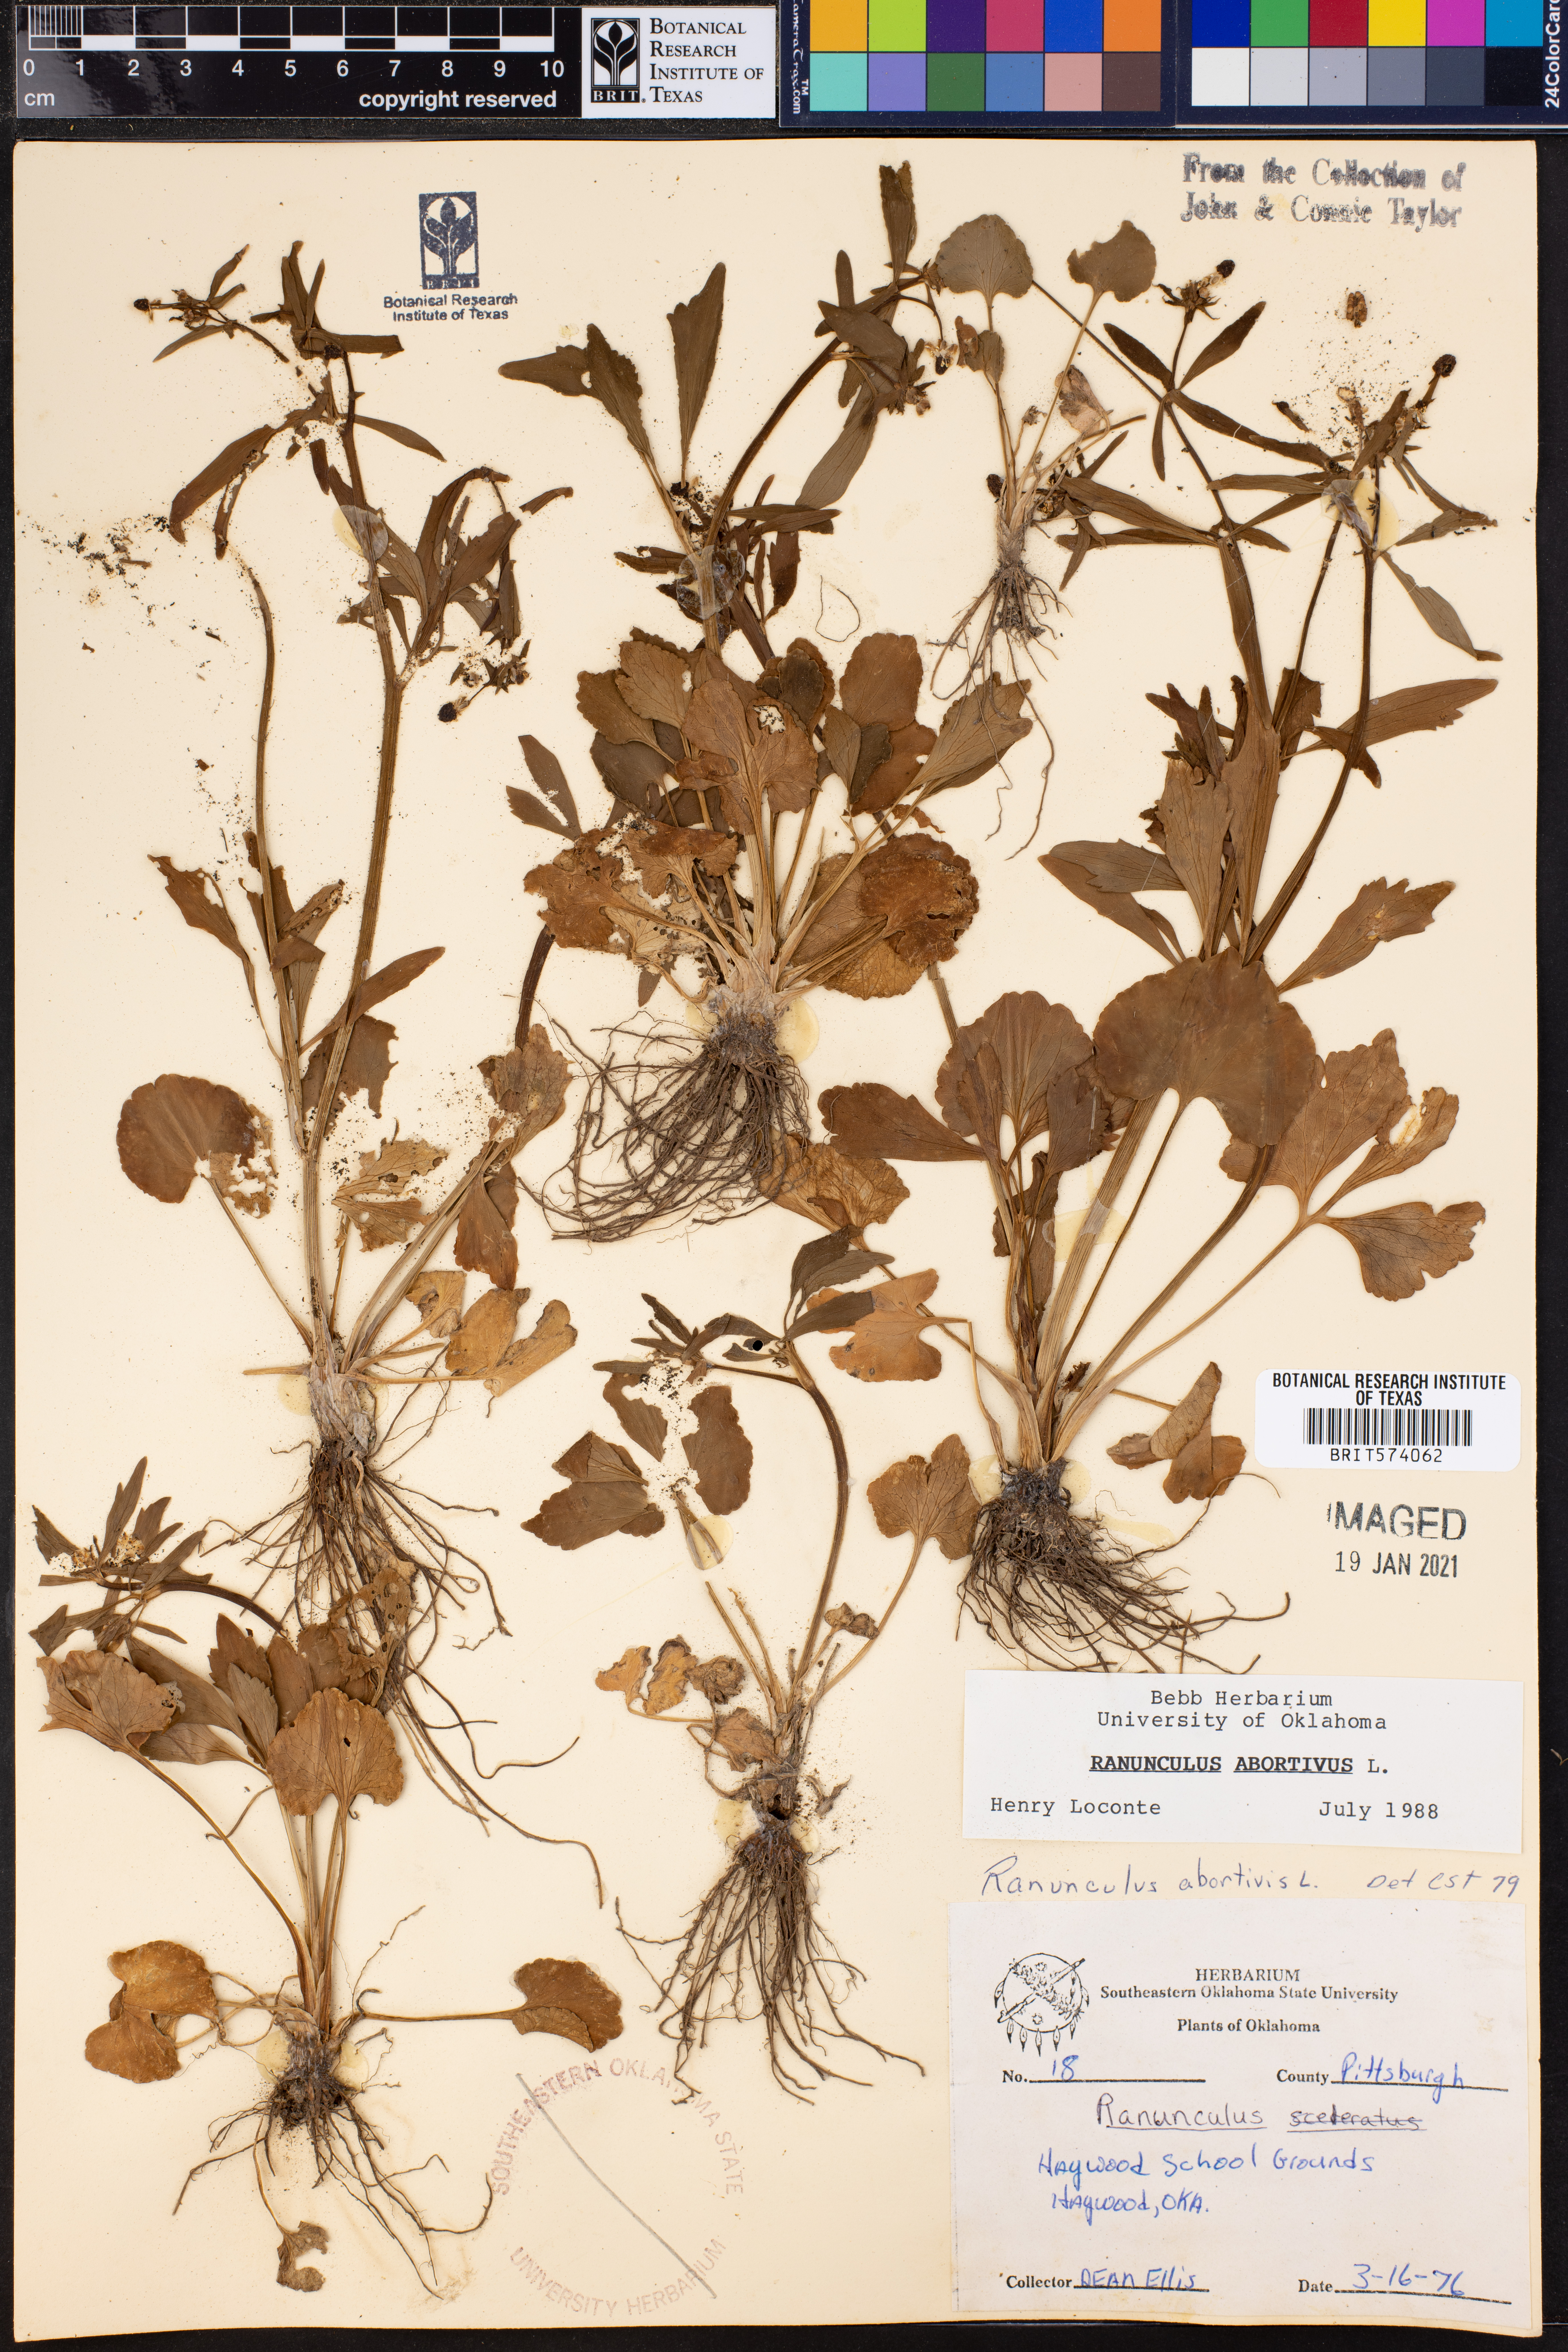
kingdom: Plantae
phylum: Tracheophyta
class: Magnoliopsida
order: Ranunculales
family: Ranunculaceae
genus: Ranunculus
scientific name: Ranunculus abortivus
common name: Early wood buttercup
